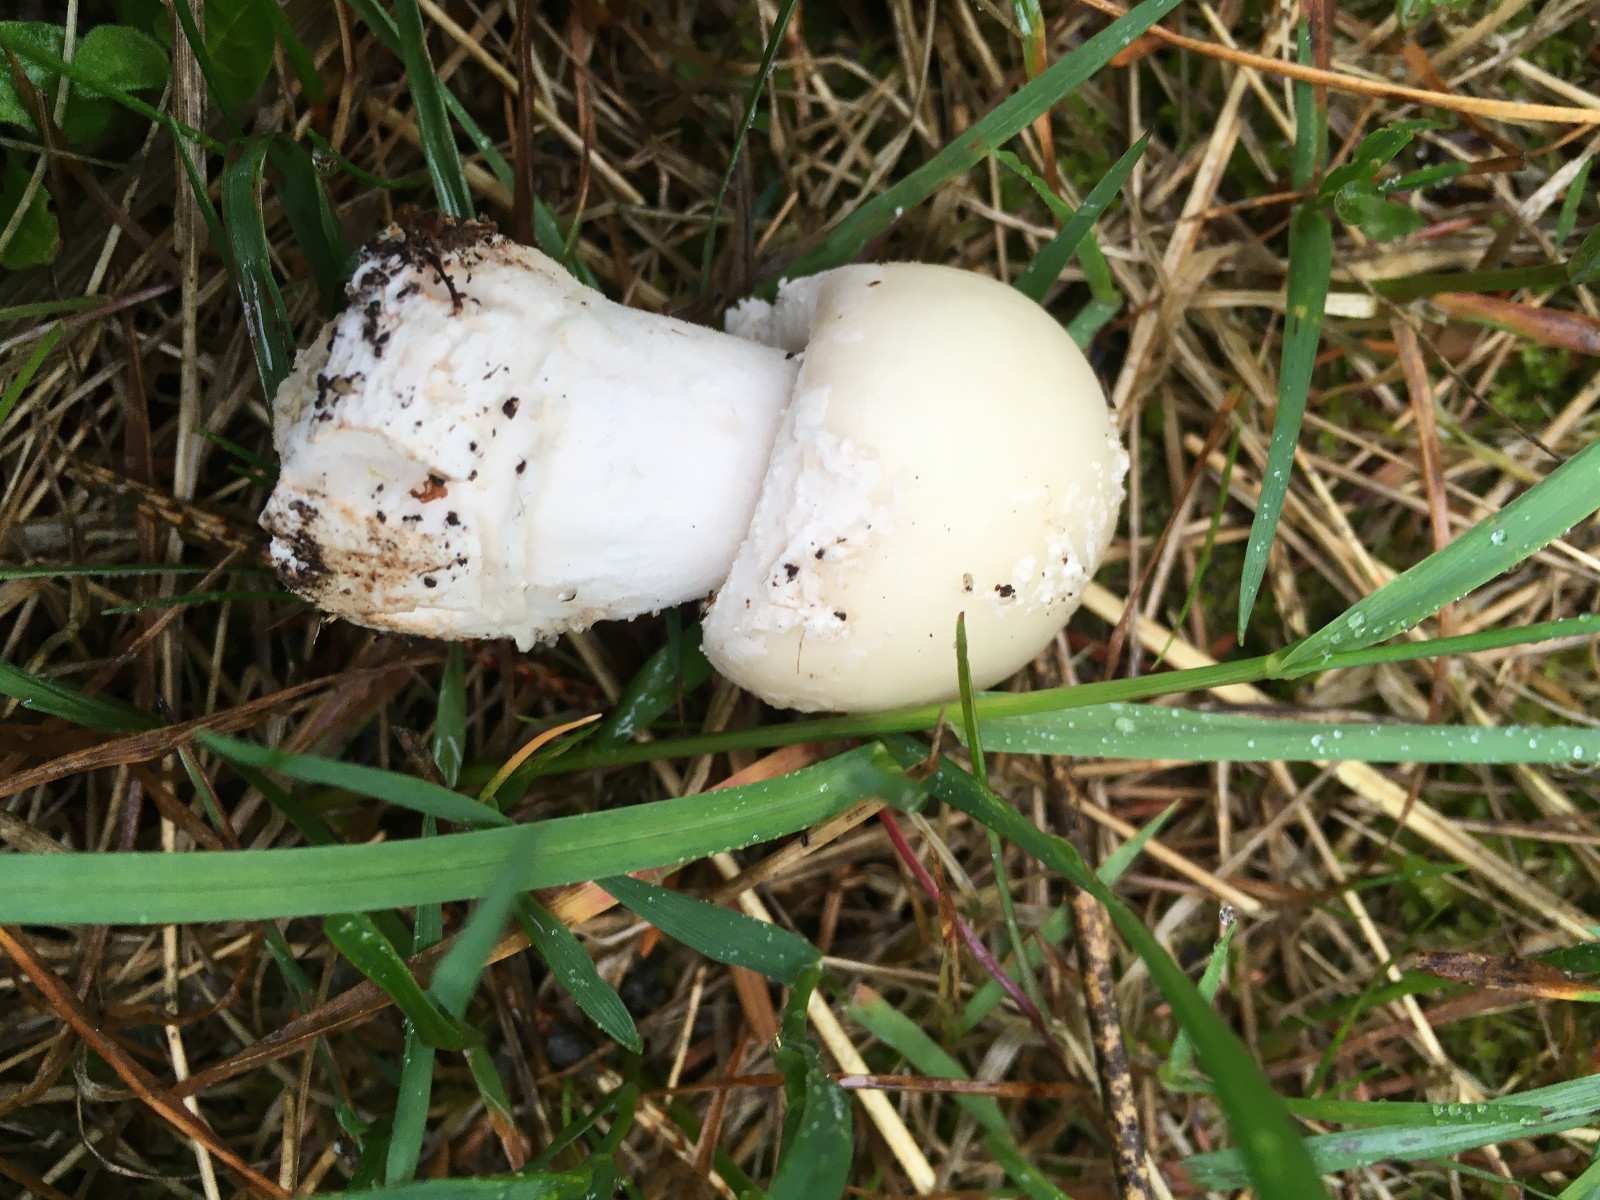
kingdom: Fungi
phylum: Basidiomycota
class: Agaricomycetes
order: Agaricales
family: Amanitaceae
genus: Amanita
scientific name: Amanita
